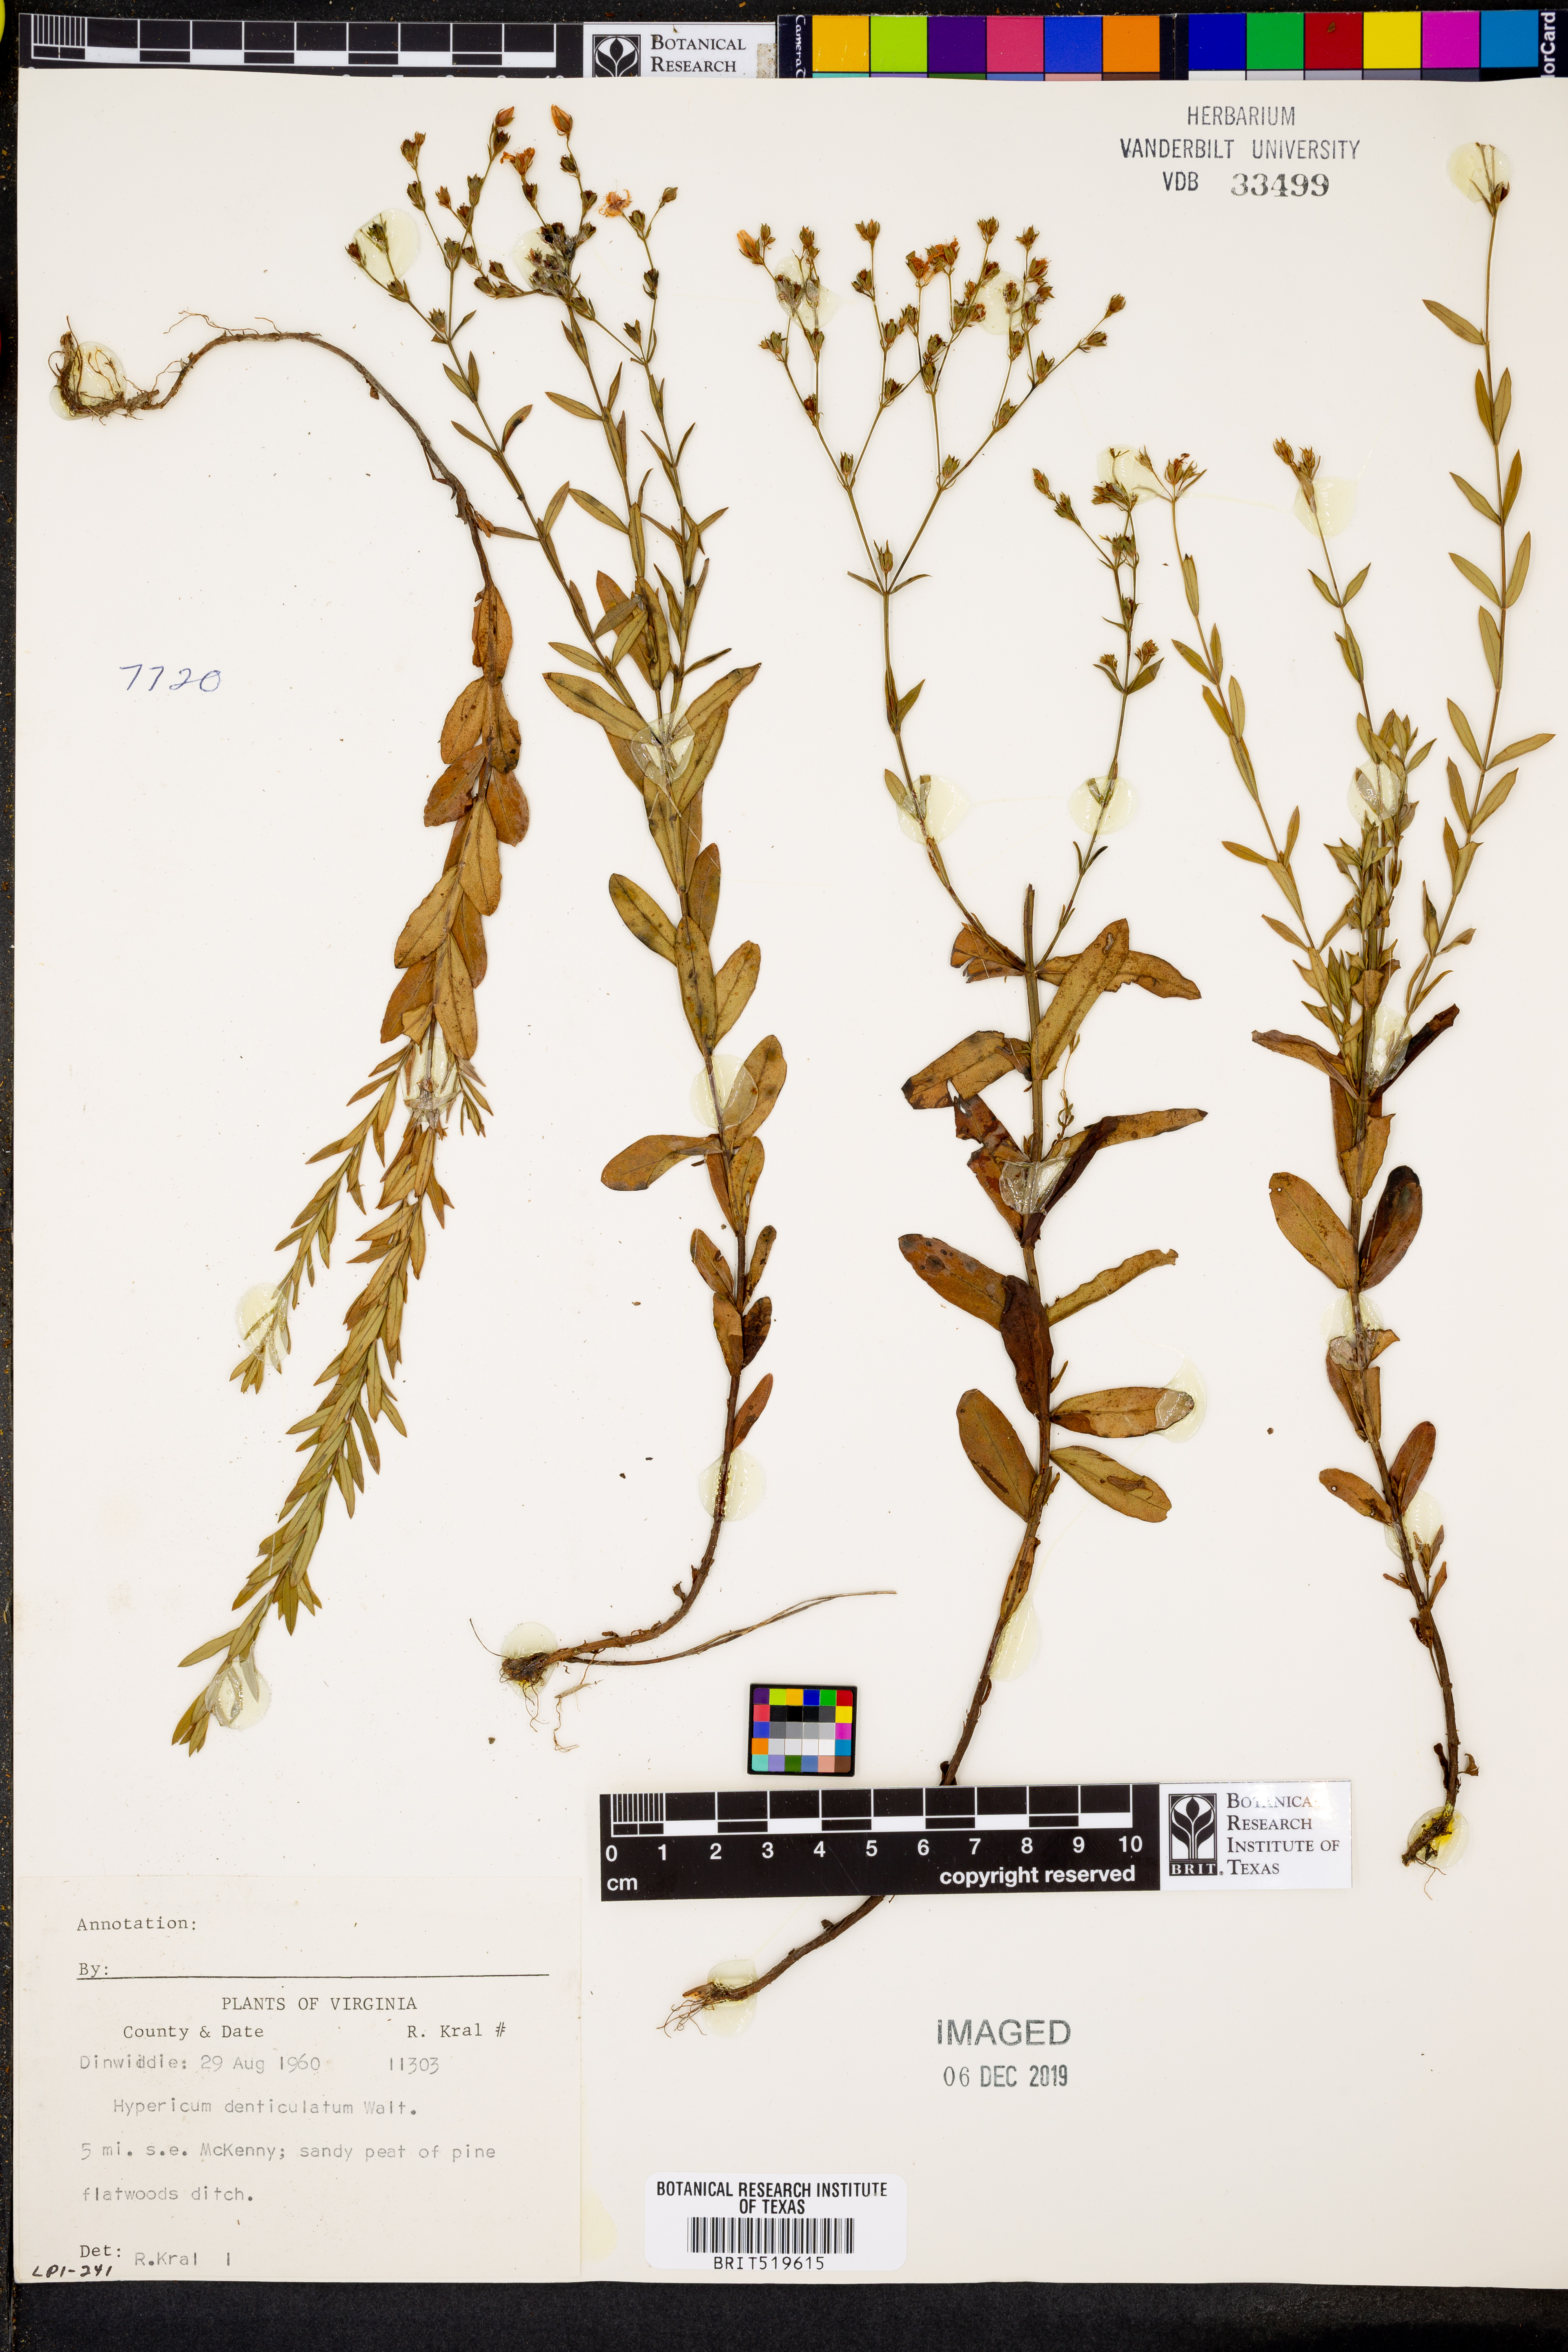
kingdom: Plantae
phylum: Tracheophyta
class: Magnoliopsida
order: Malpighiales
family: Hypericaceae
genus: Hypericum
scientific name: Hypericum denticulatum
